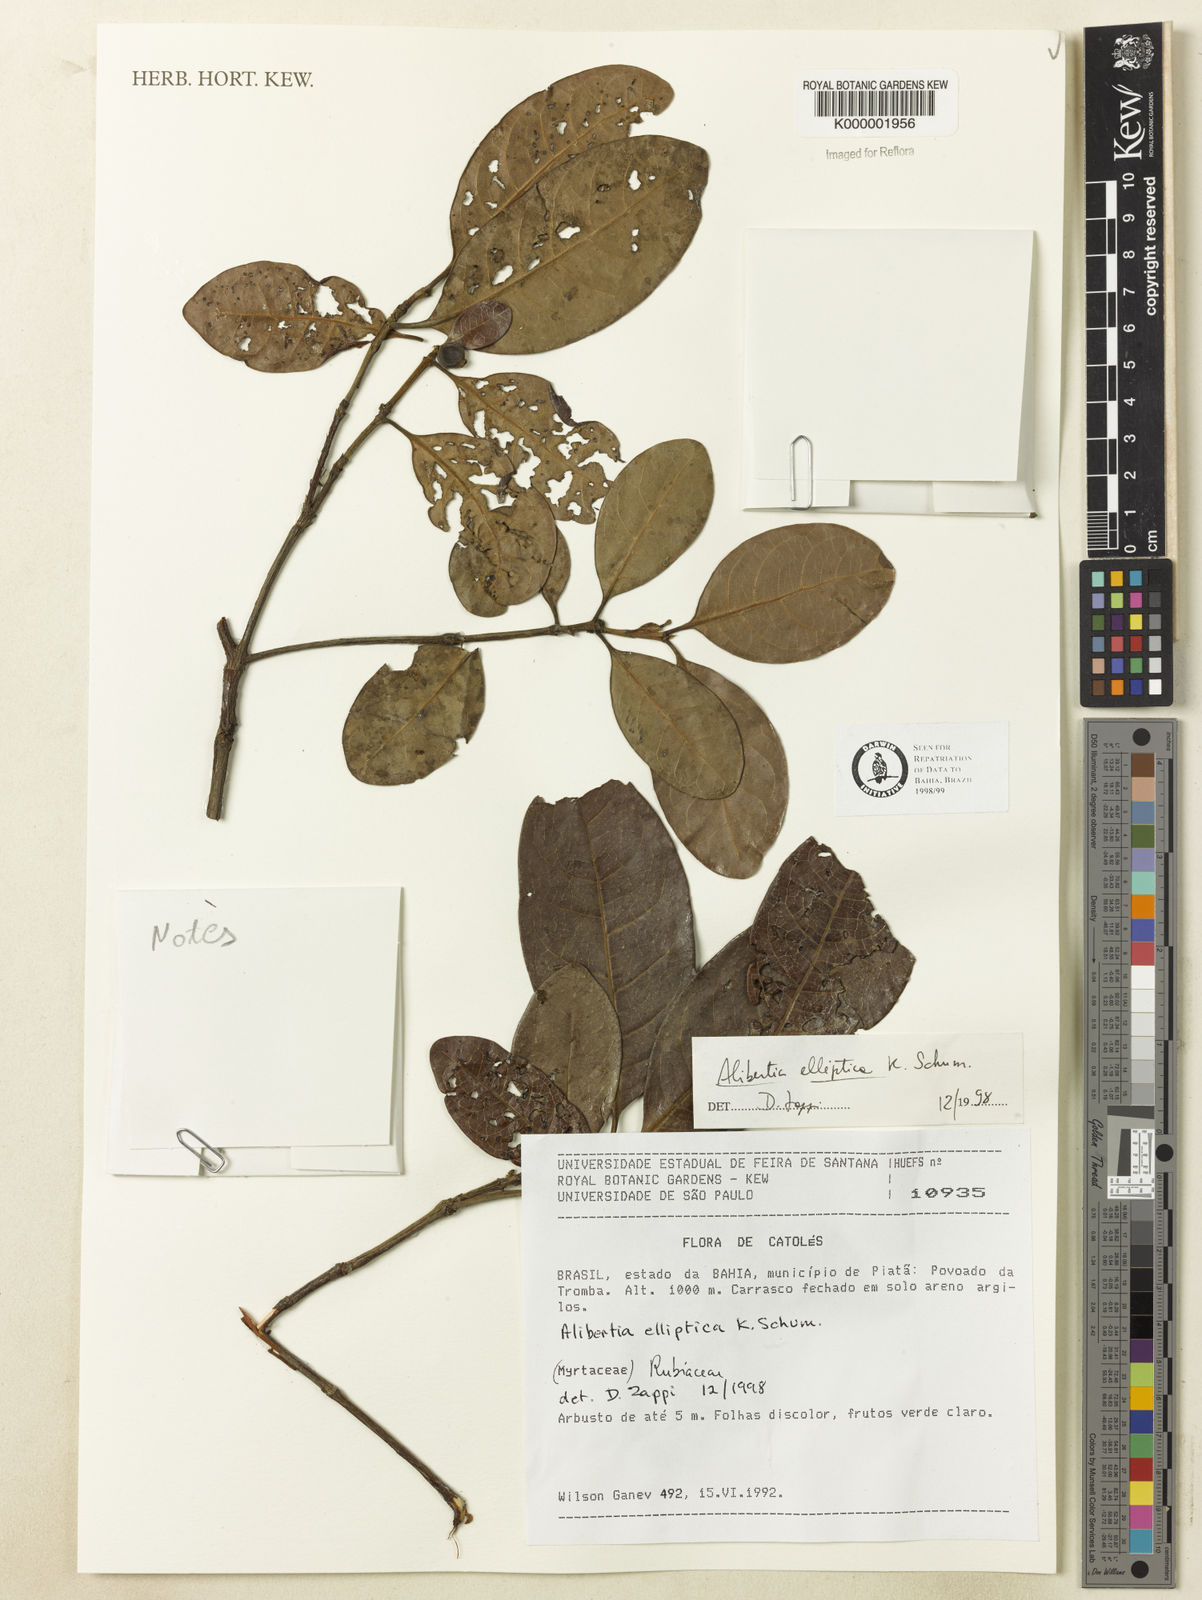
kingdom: Plantae
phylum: Tracheophyta
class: Magnoliopsida
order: Gentianales
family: Rubiaceae
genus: Cordiera
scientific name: Cordiera elliptica
